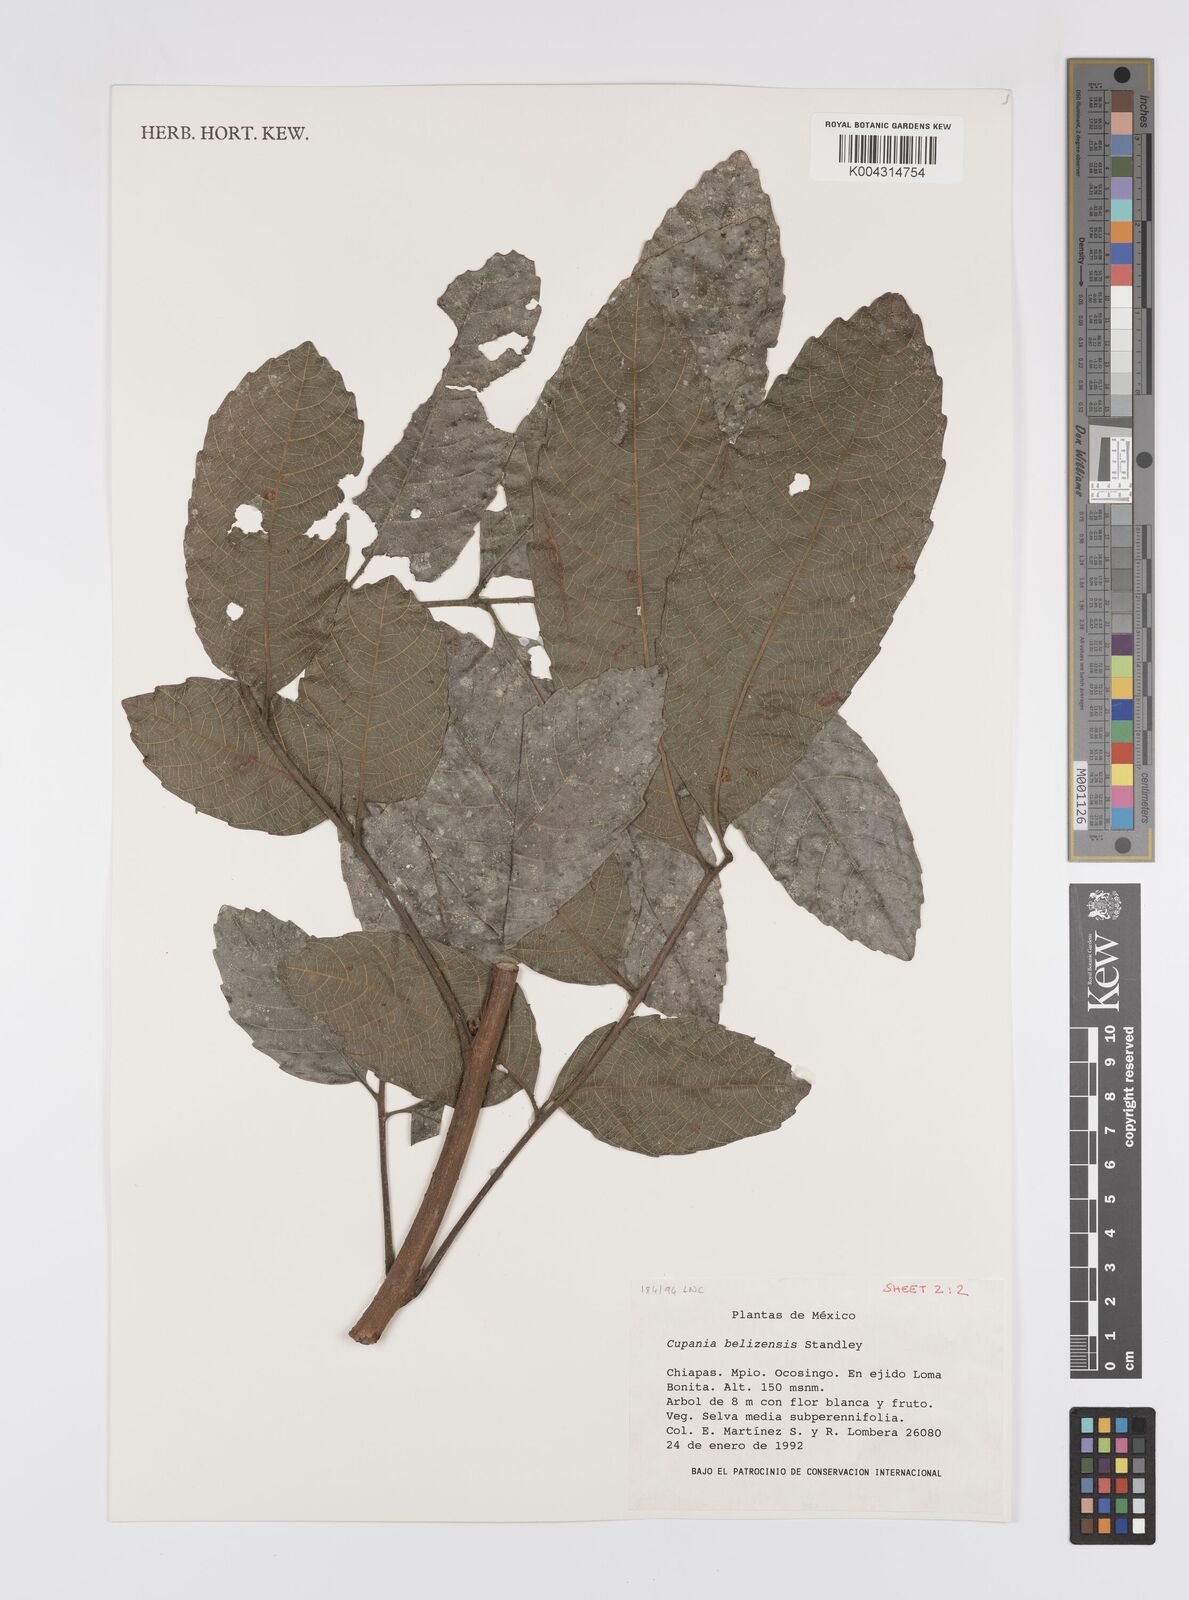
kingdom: Plantae
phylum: Tracheophyta
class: Magnoliopsida
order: Sapindales
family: Sapindaceae
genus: Cupania
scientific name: Cupania belizensis
